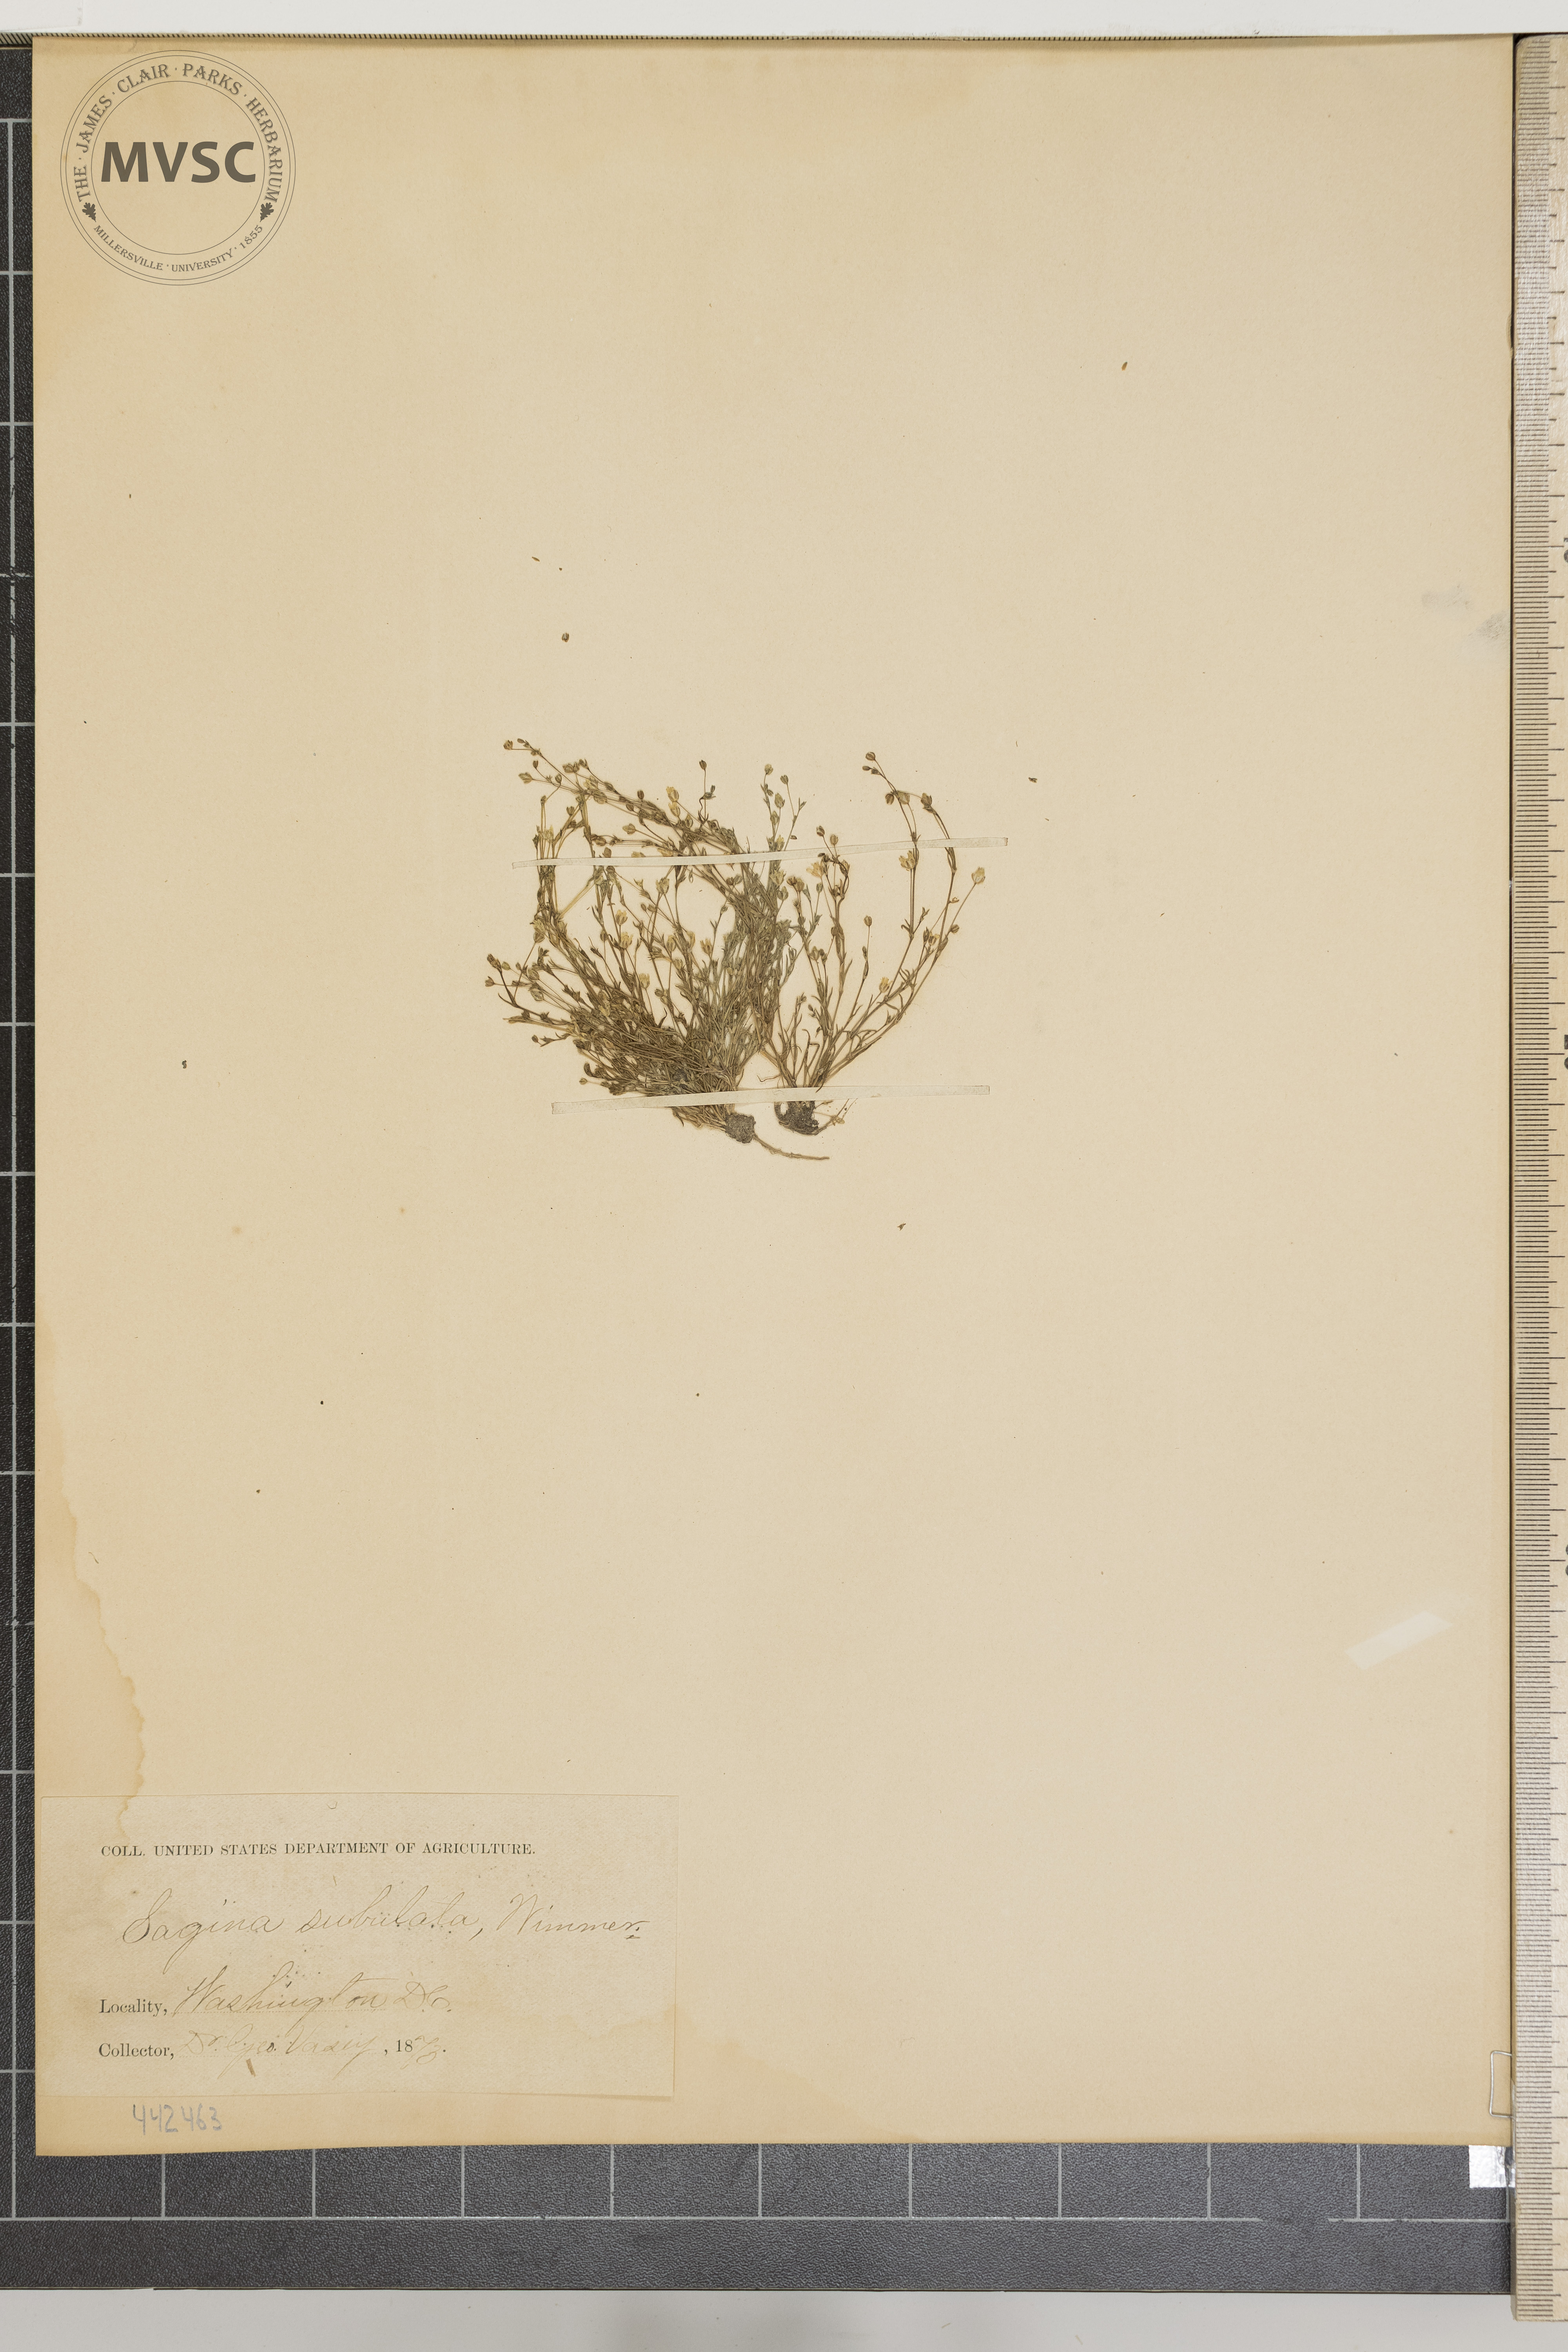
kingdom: Plantae
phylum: Tracheophyta
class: Magnoliopsida
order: Caryophyllales
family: Caryophyllaceae
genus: Sagina
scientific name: Sagina subulata
